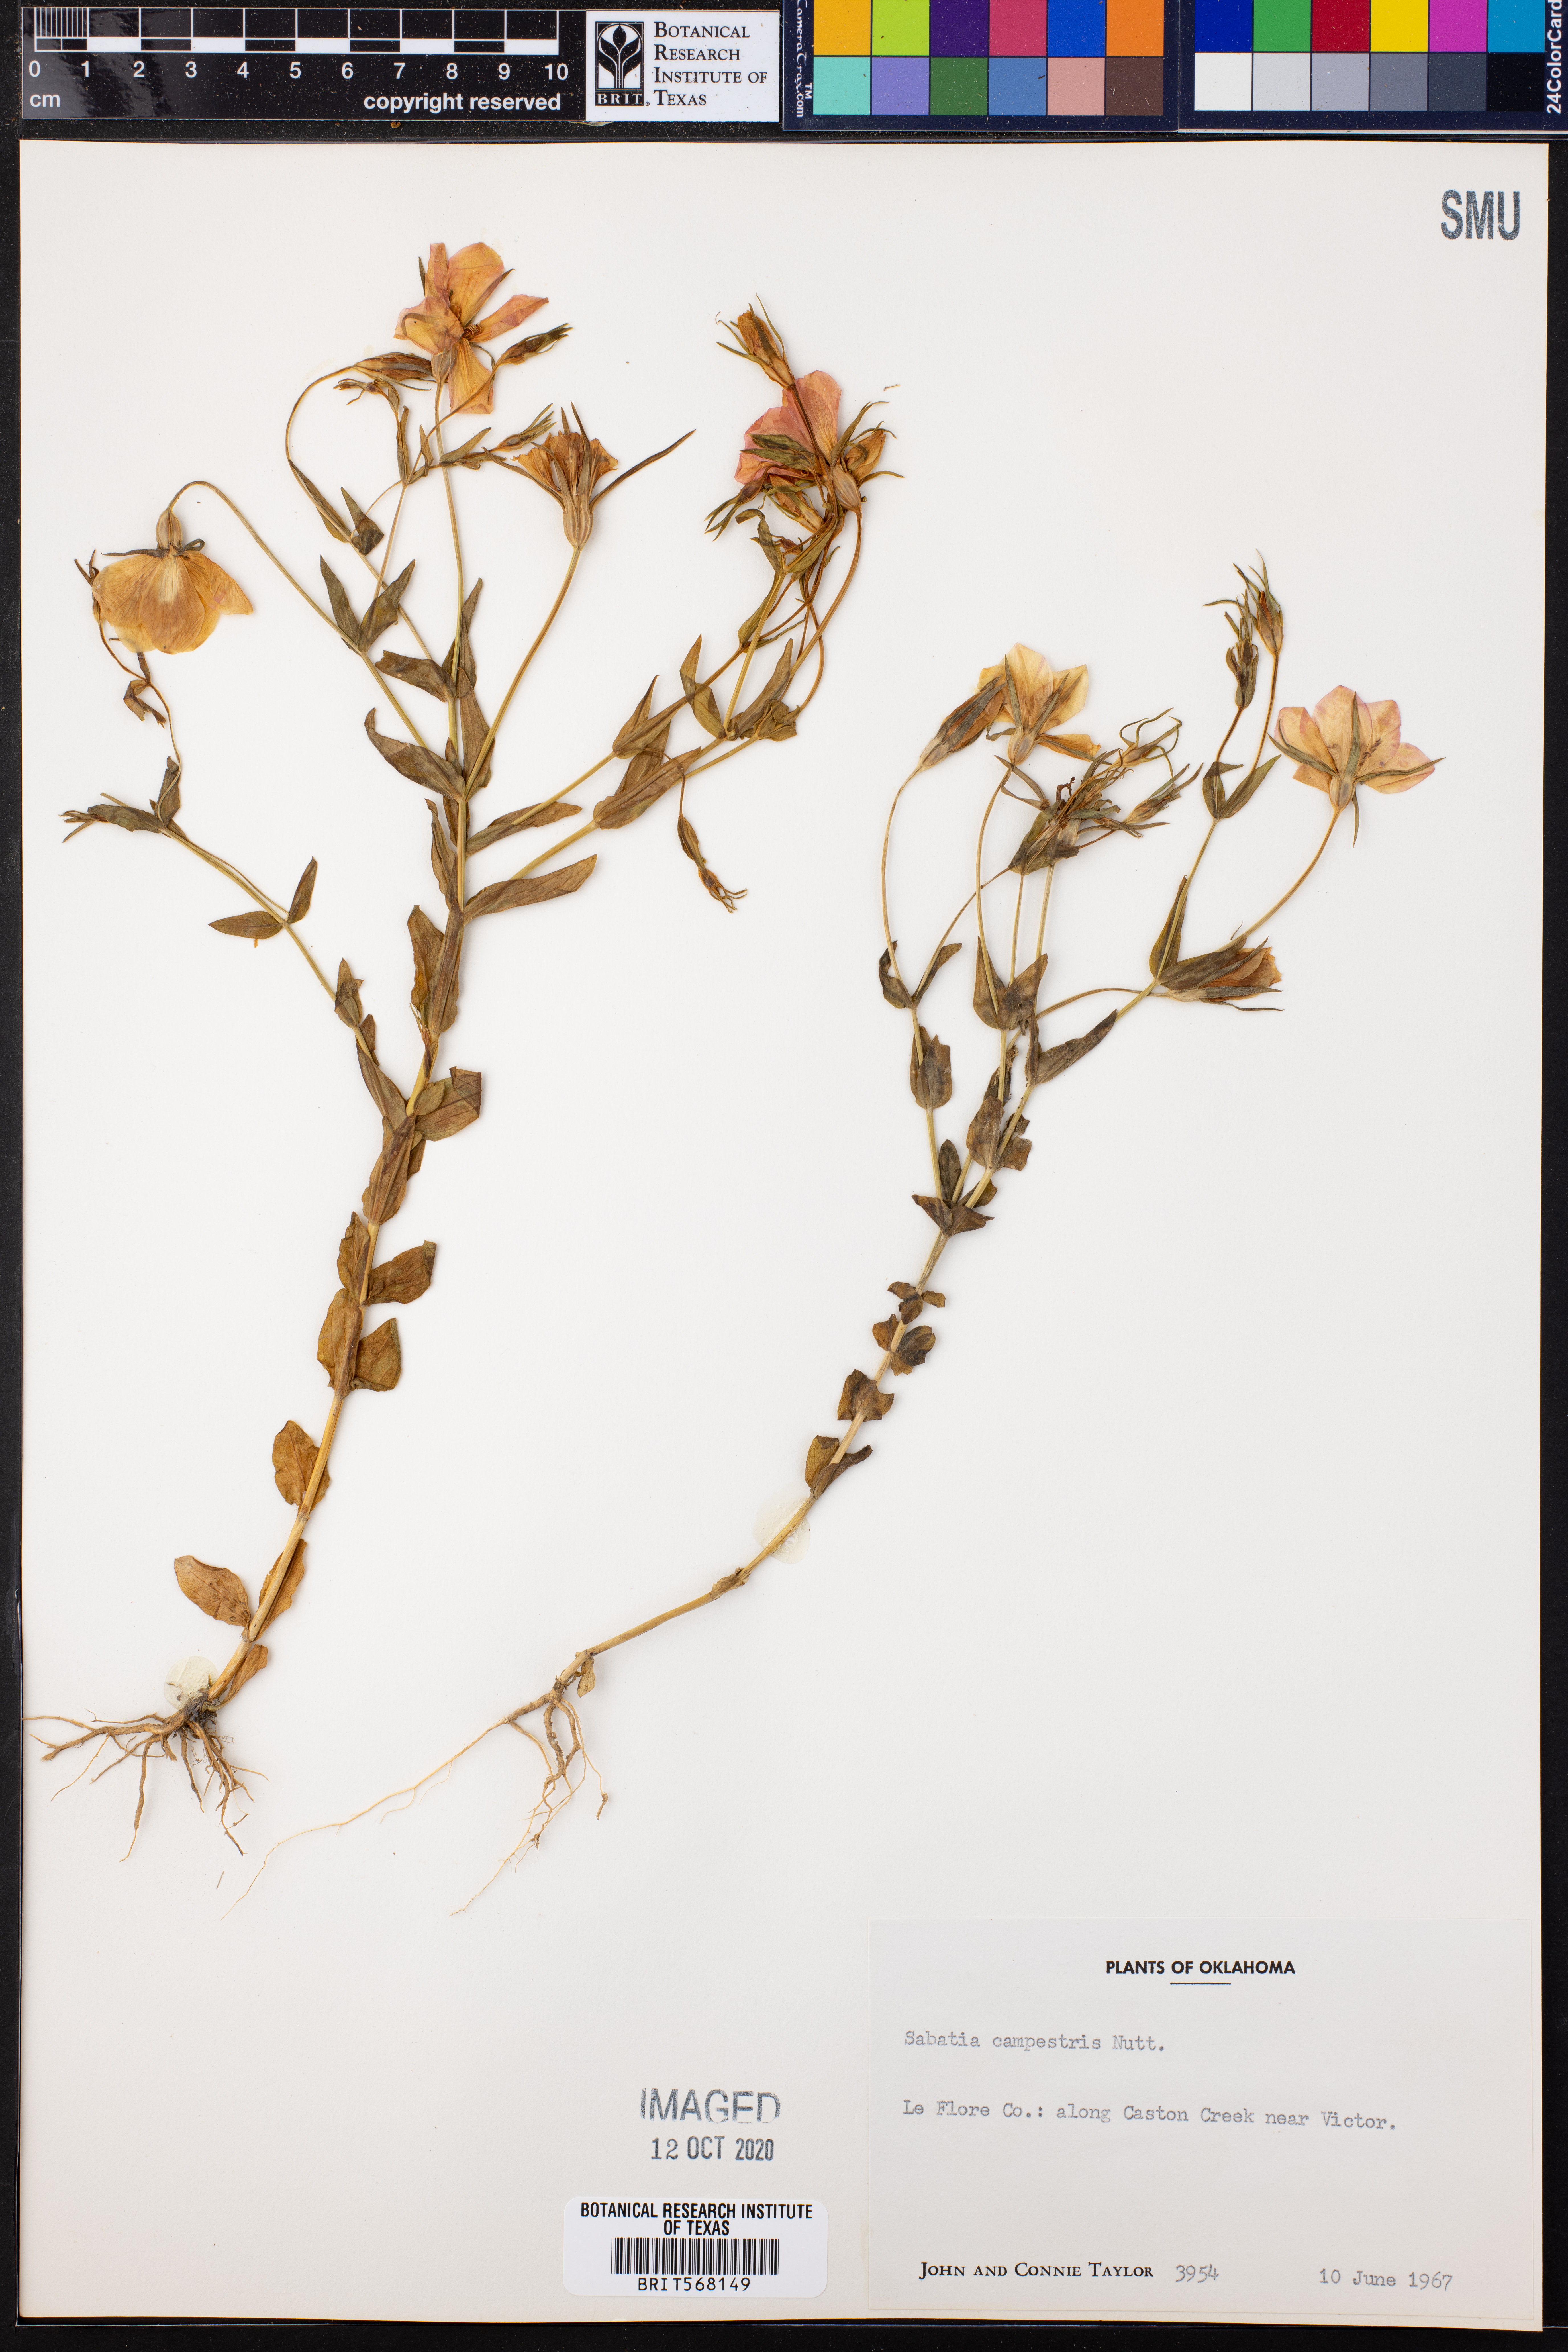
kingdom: Plantae
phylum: Tracheophyta
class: Magnoliopsida
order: Gentianales
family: Gentianaceae
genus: Sabatia
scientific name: Sabatia campestris
